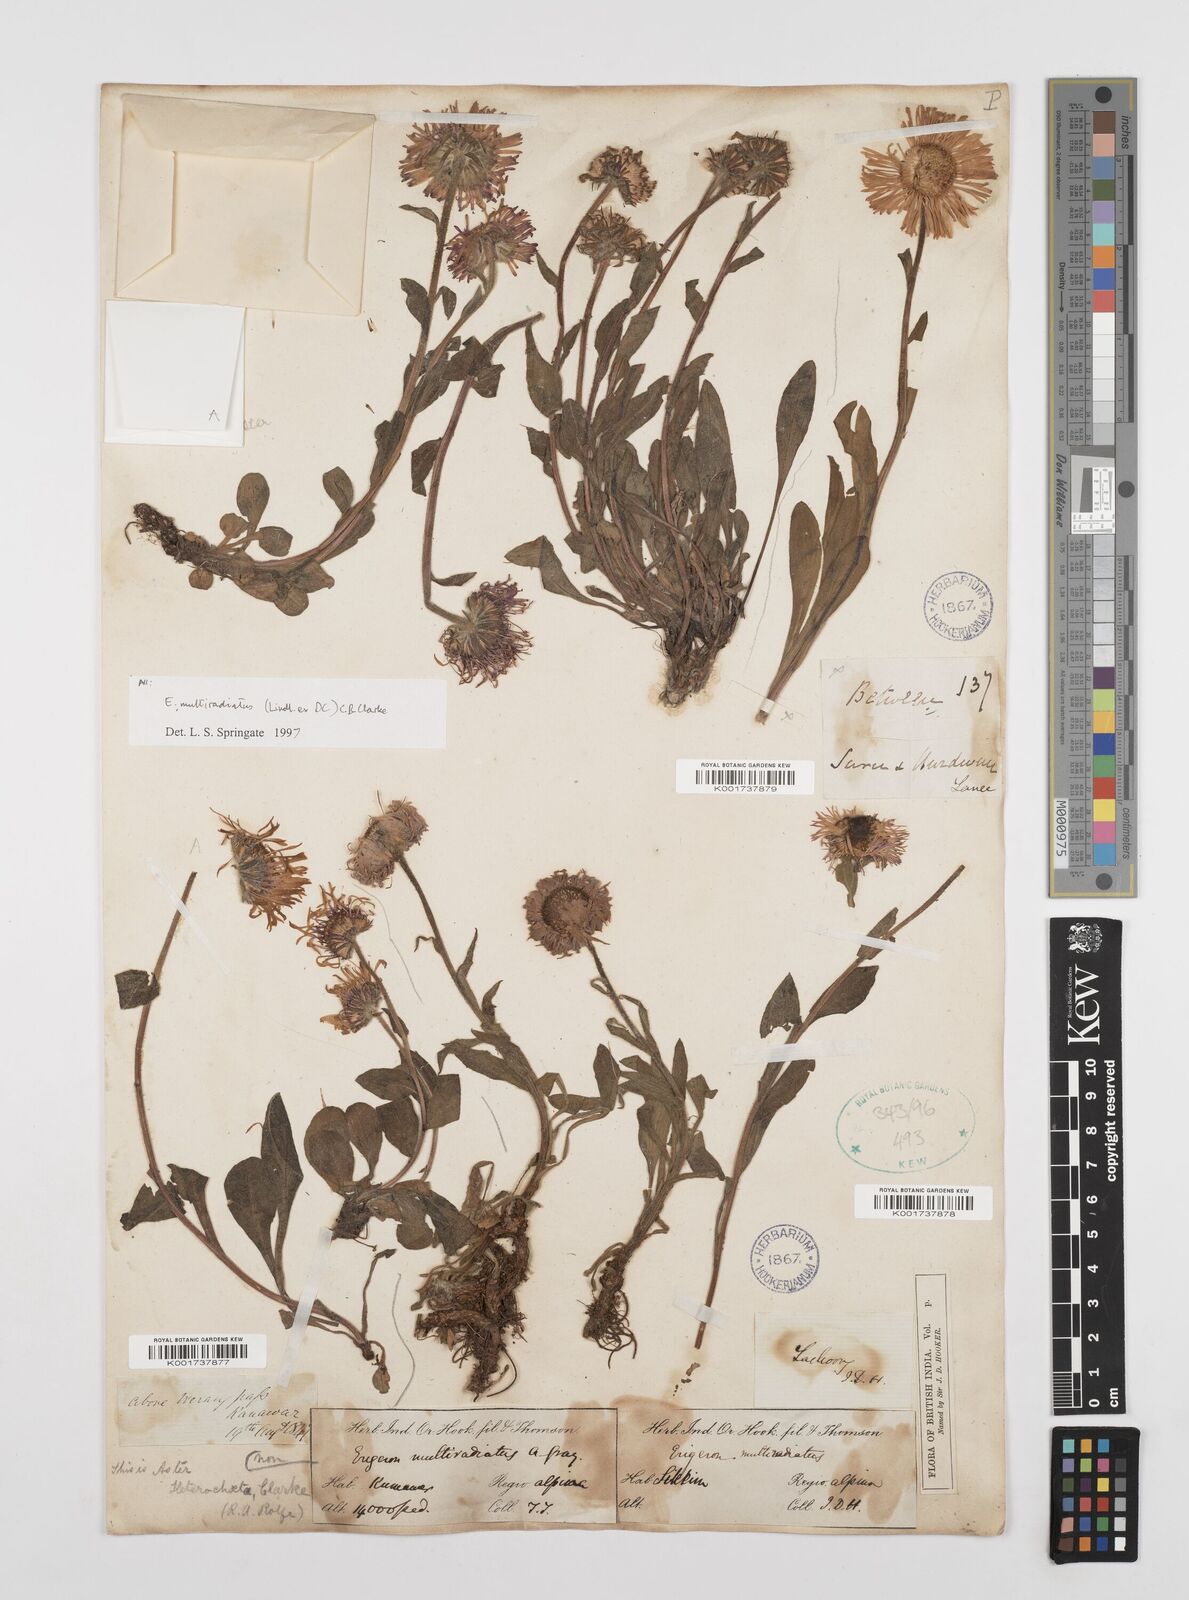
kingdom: Plantae
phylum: Tracheophyta
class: Magnoliopsida
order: Asterales
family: Asteraceae
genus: Erigeron
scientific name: Erigeron acris
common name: Blue fleabane
